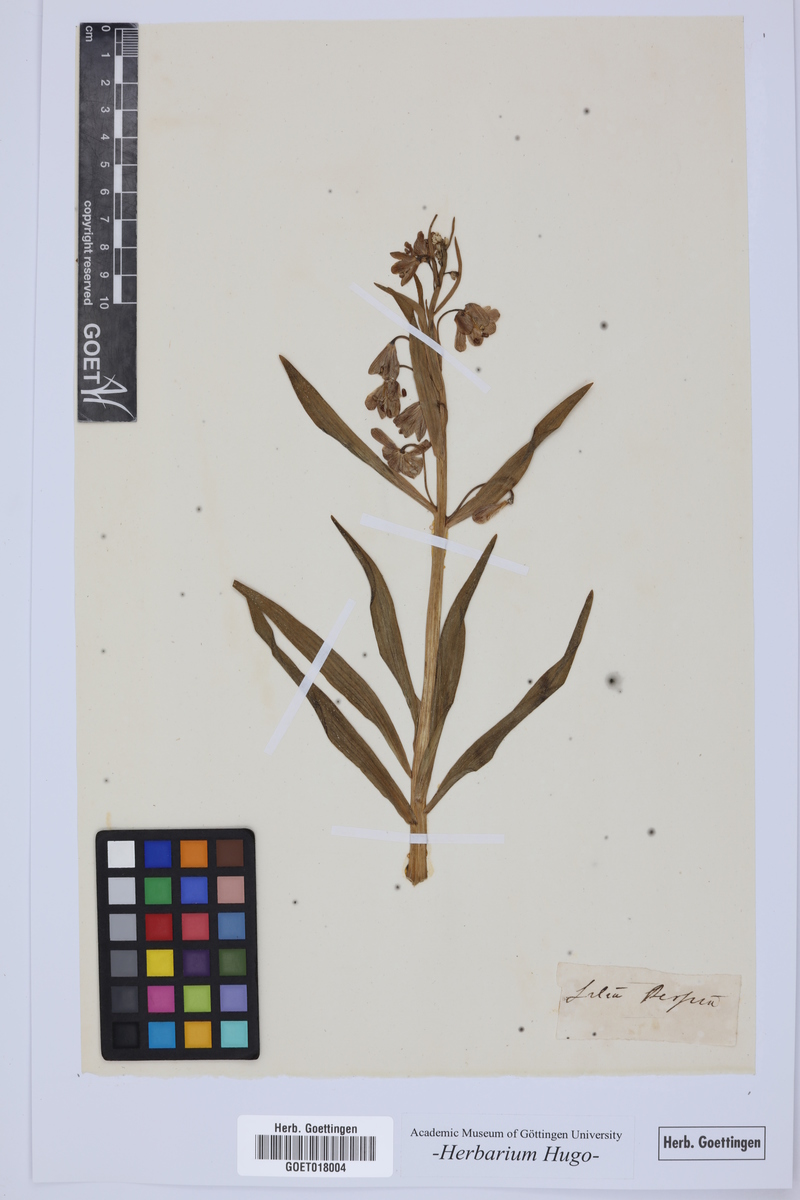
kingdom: Plantae
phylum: Tracheophyta
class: Liliopsida
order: Liliales
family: Liliaceae
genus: Lilium
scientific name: Lilium
